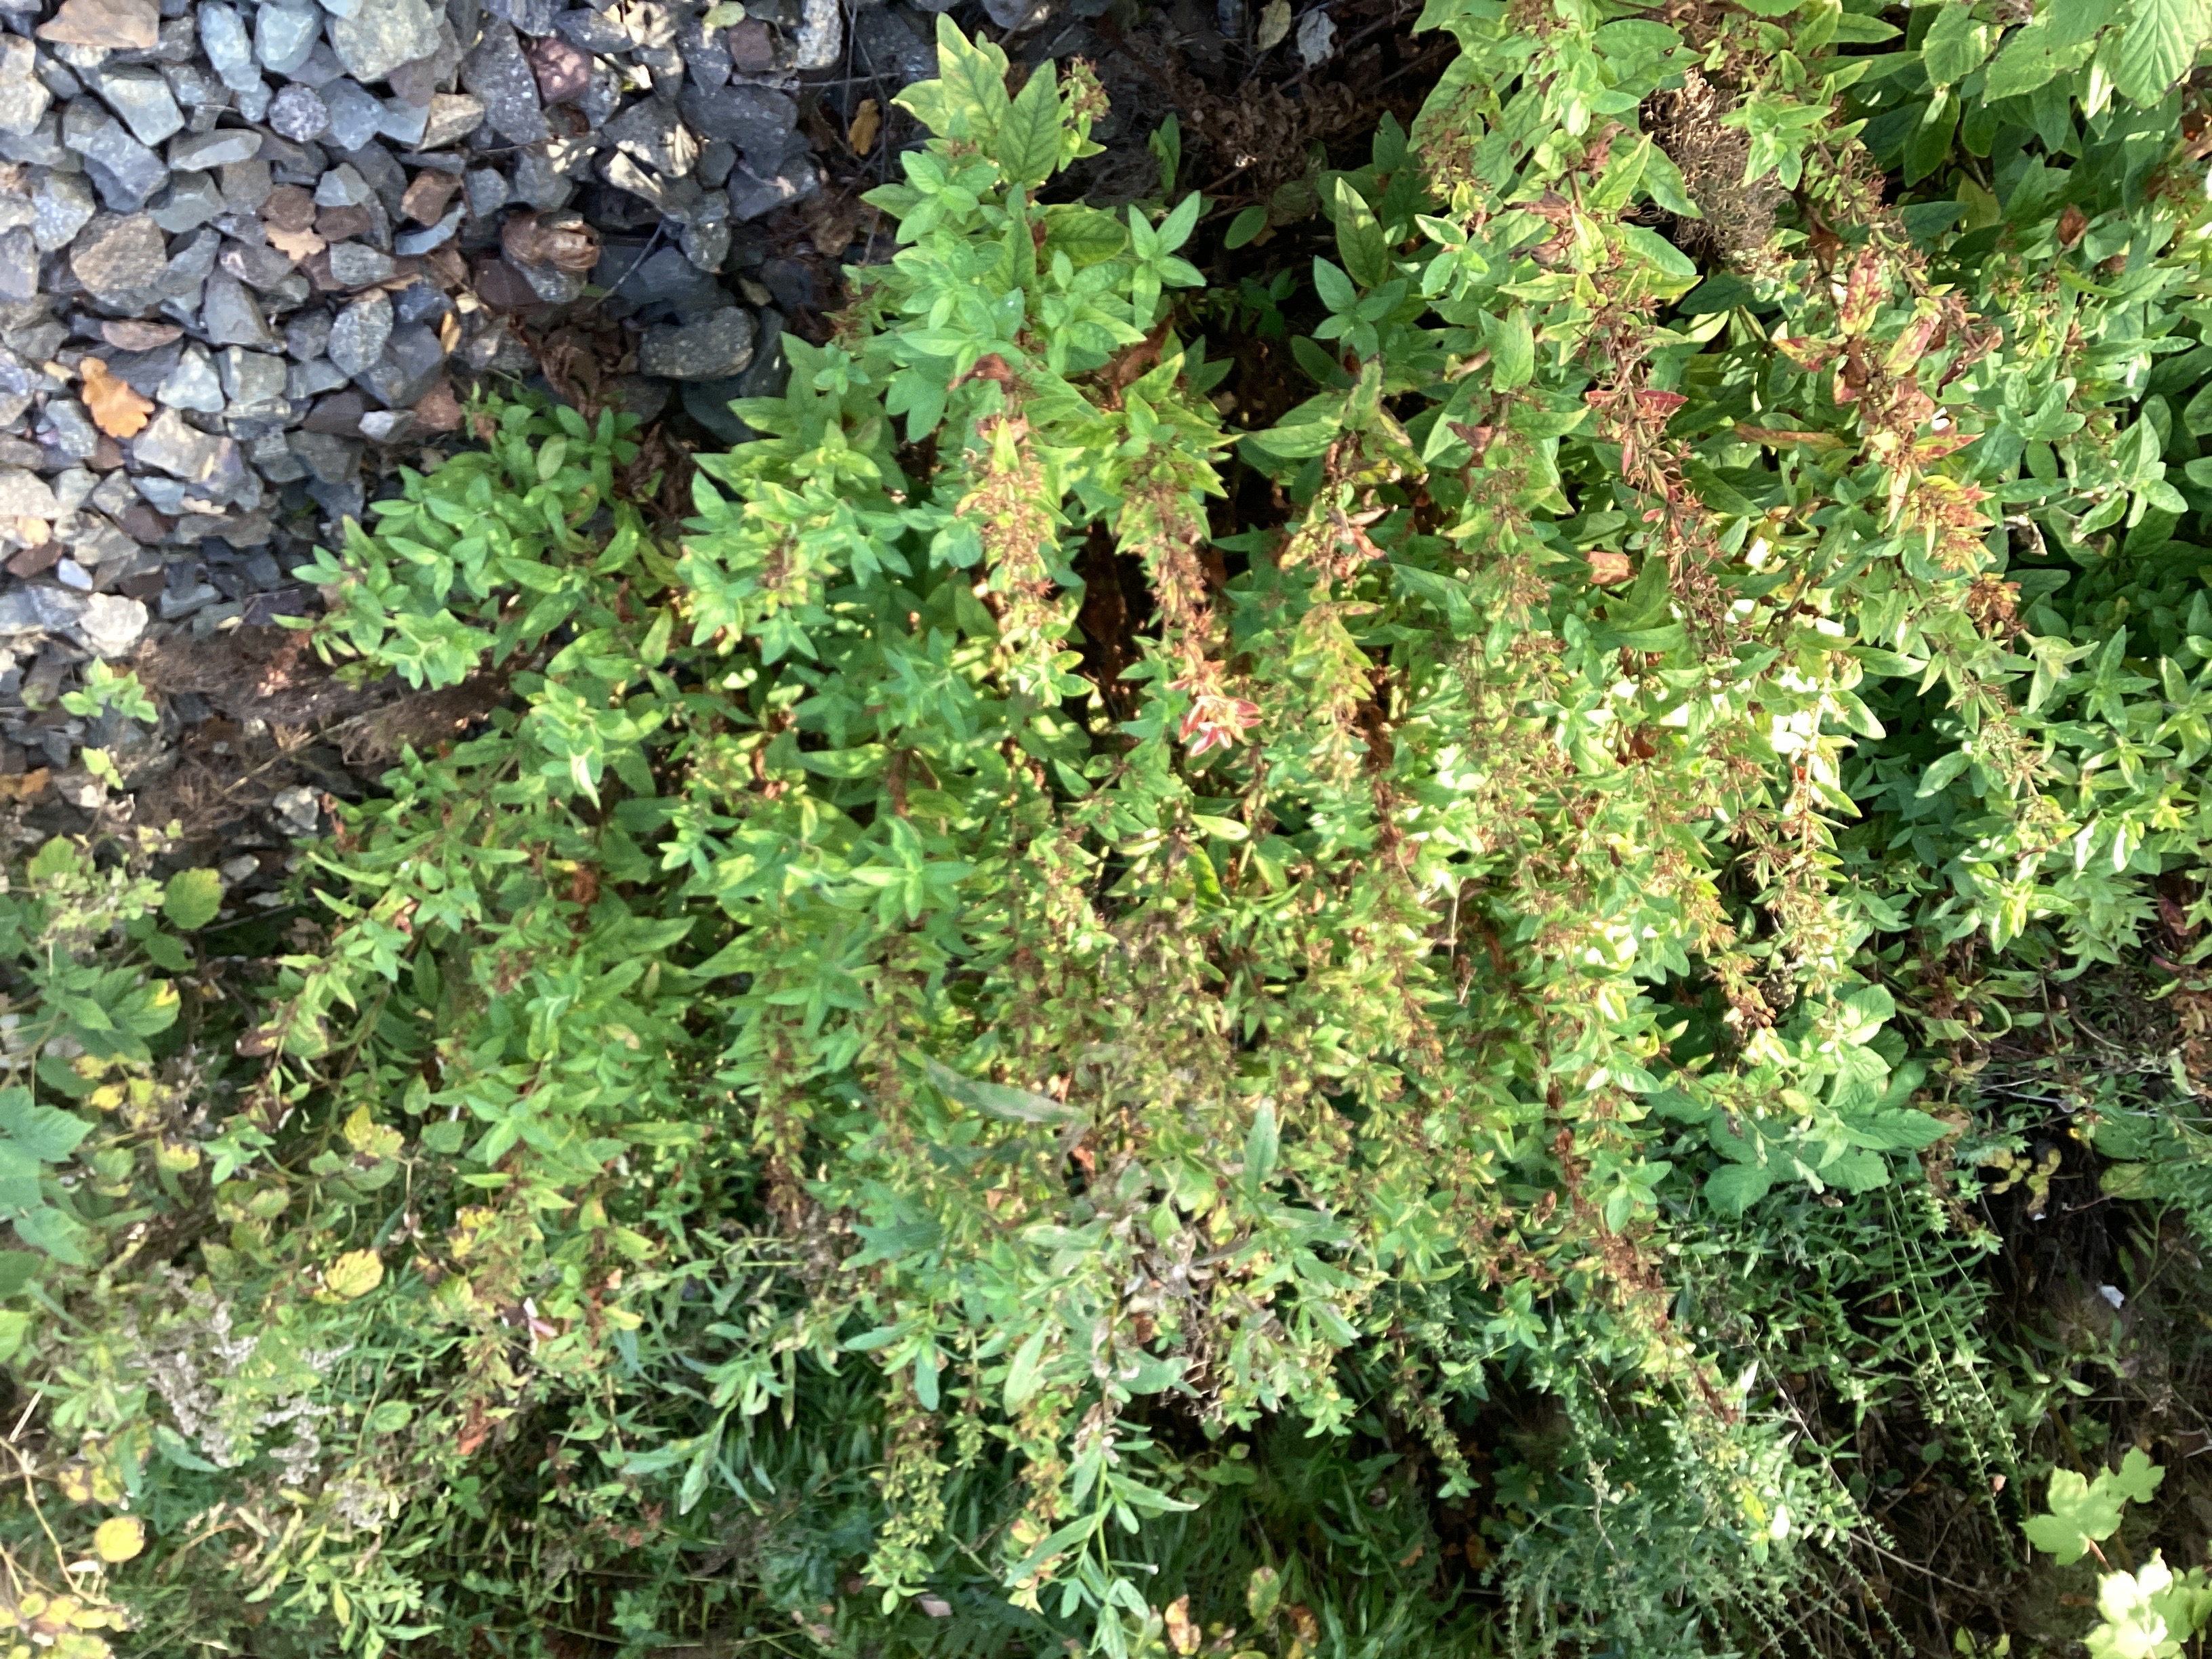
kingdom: Plantae
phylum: Tracheophyta
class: Magnoliopsida
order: Ericales
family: Primulaceae
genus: Lysimachia
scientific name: Lysimachia punctata
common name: fagerfredløs
